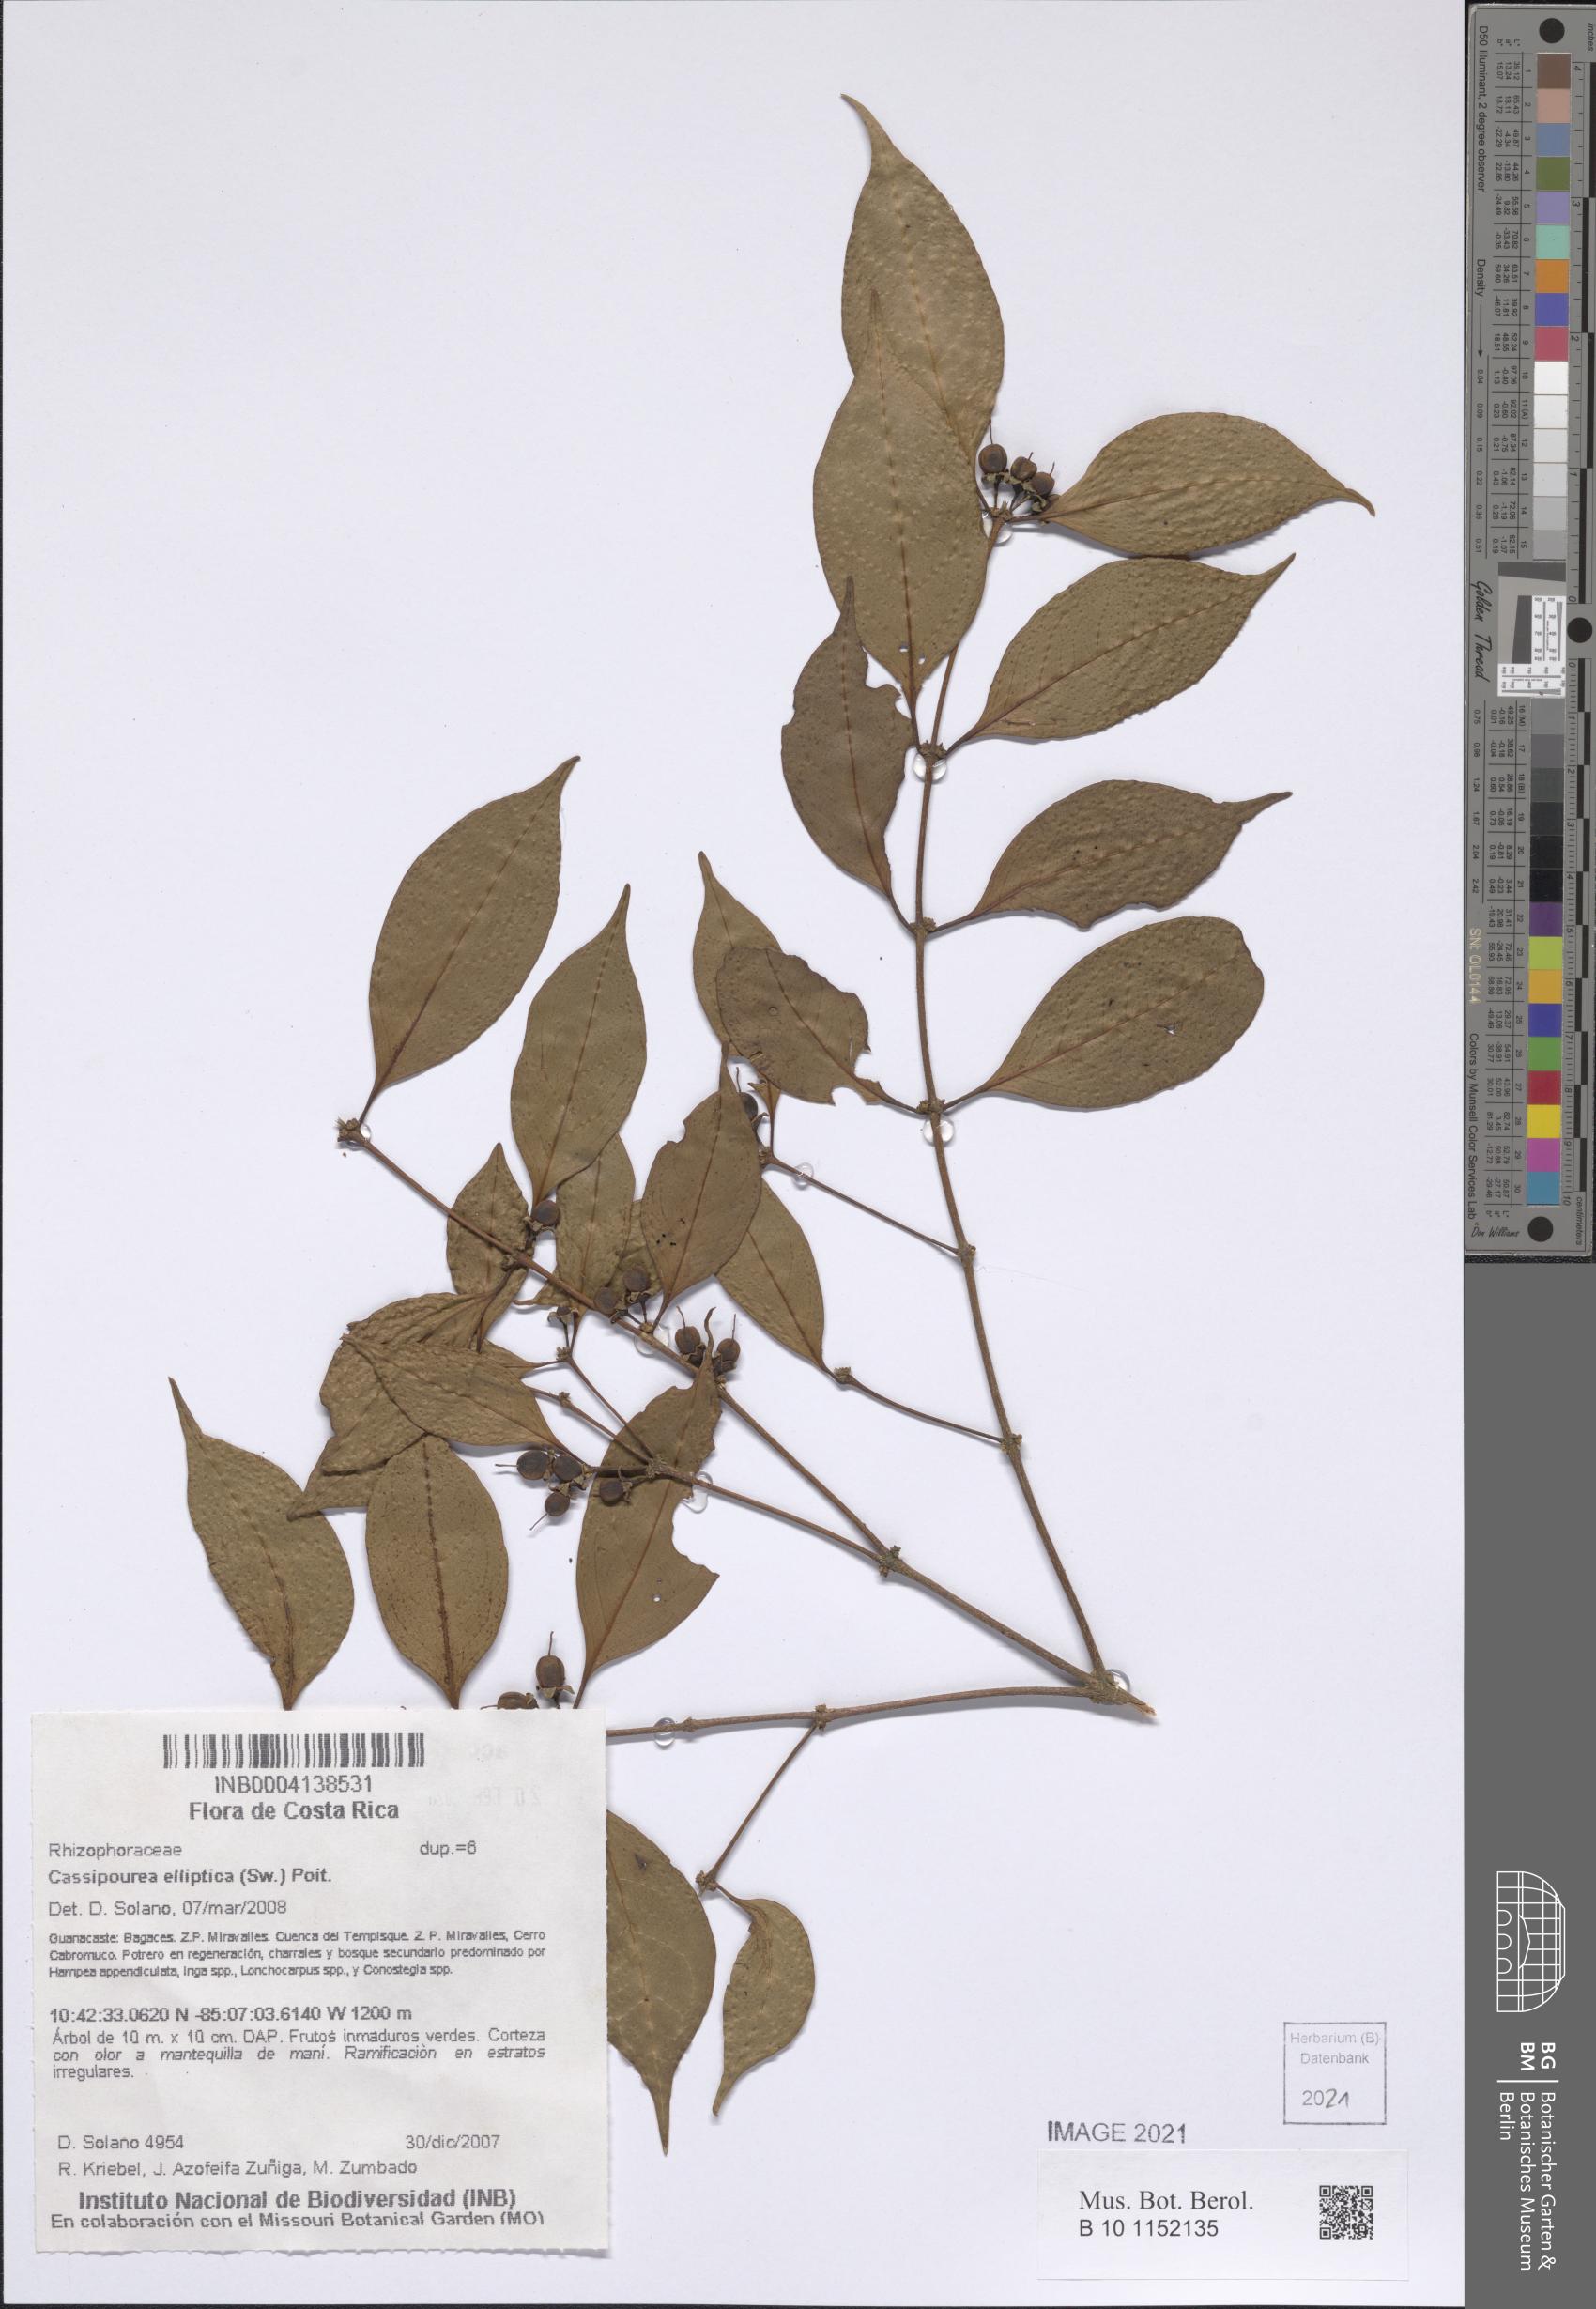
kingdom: Plantae
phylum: Tracheophyta
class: Magnoliopsida
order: Malpighiales
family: Rhizophoraceae
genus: Cassipourea
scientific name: Cassipourea elliptica
